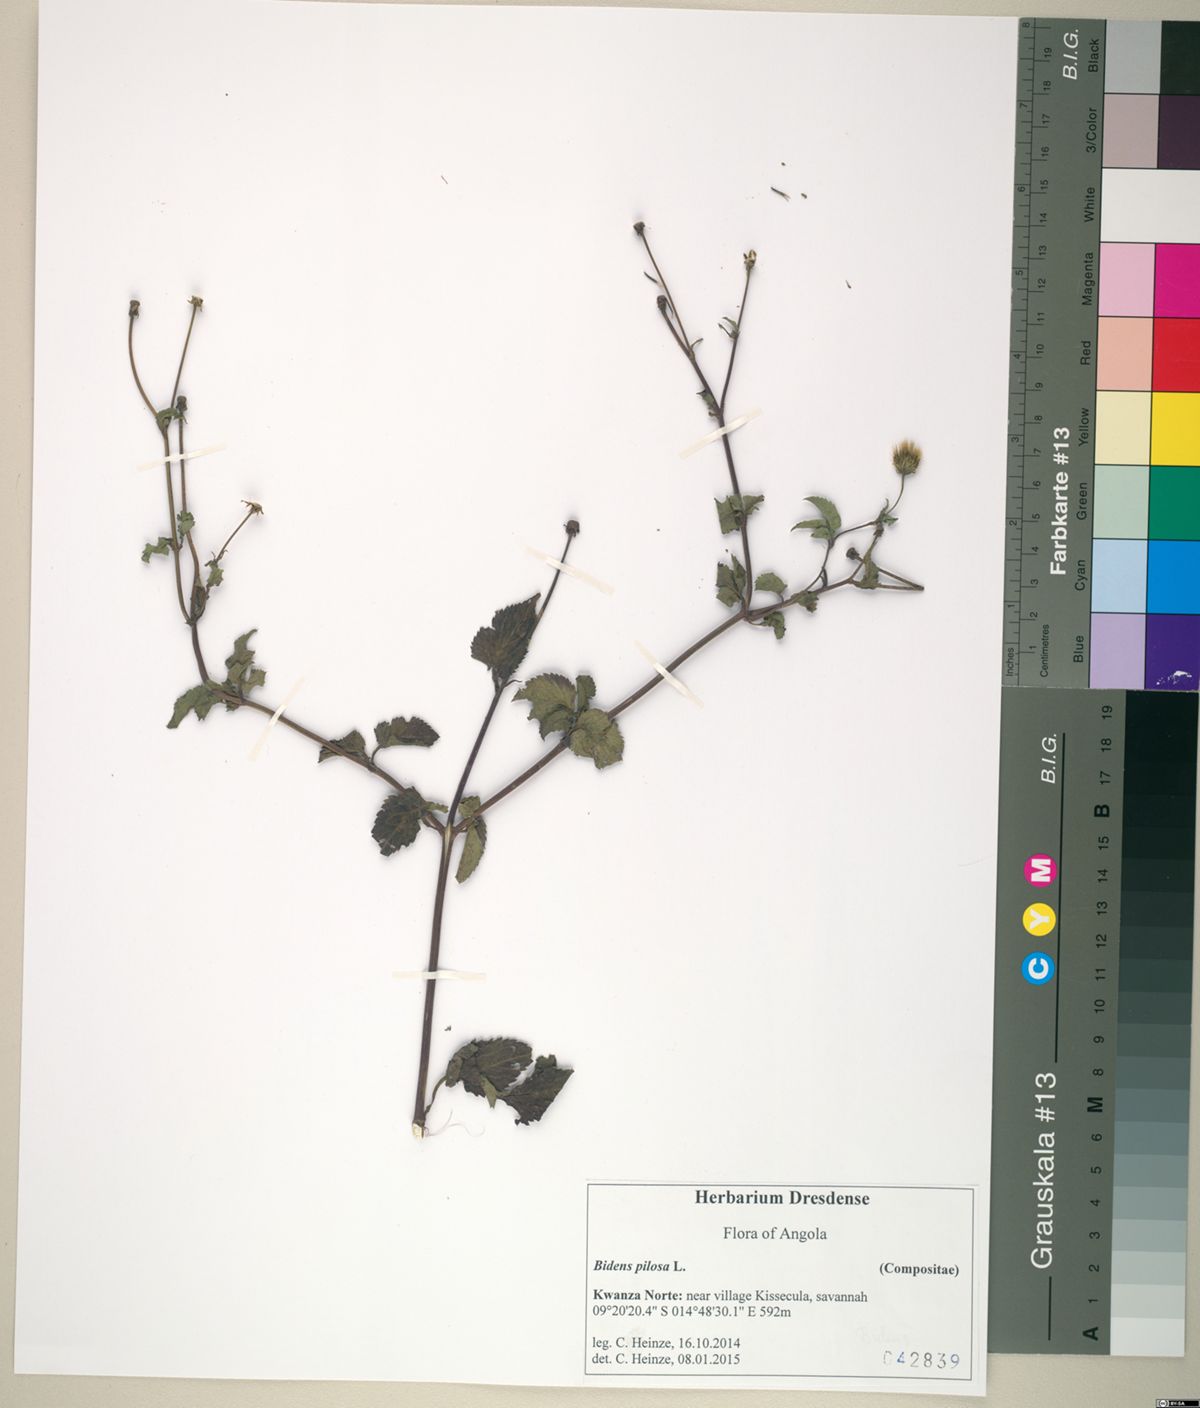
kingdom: Plantae
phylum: Tracheophyta
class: Magnoliopsida
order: Asterales
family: Asteraceae
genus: Bidens
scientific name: Bidens pilosa
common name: Black-jack
